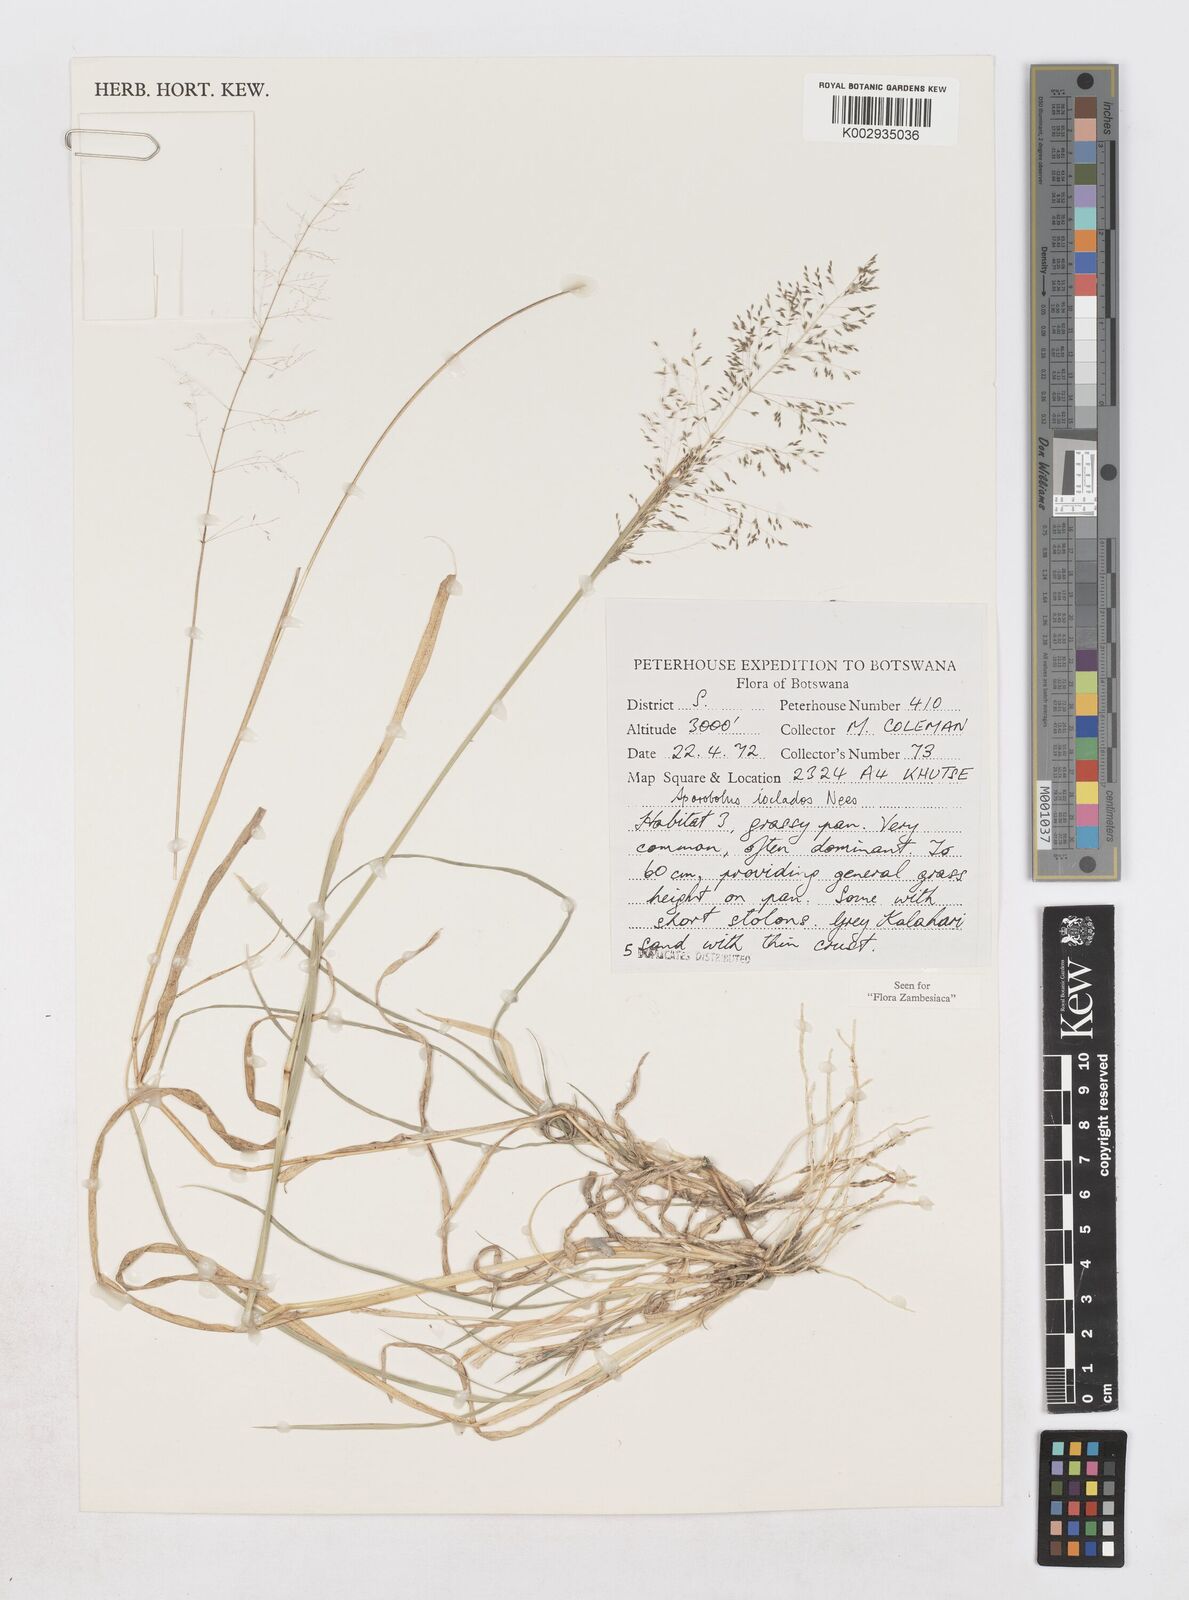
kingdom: Plantae
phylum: Tracheophyta
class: Liliopsida
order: Poales
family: Poaceae
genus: Sporobolus
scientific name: Sporobolus ioclados
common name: Pan dropseed
